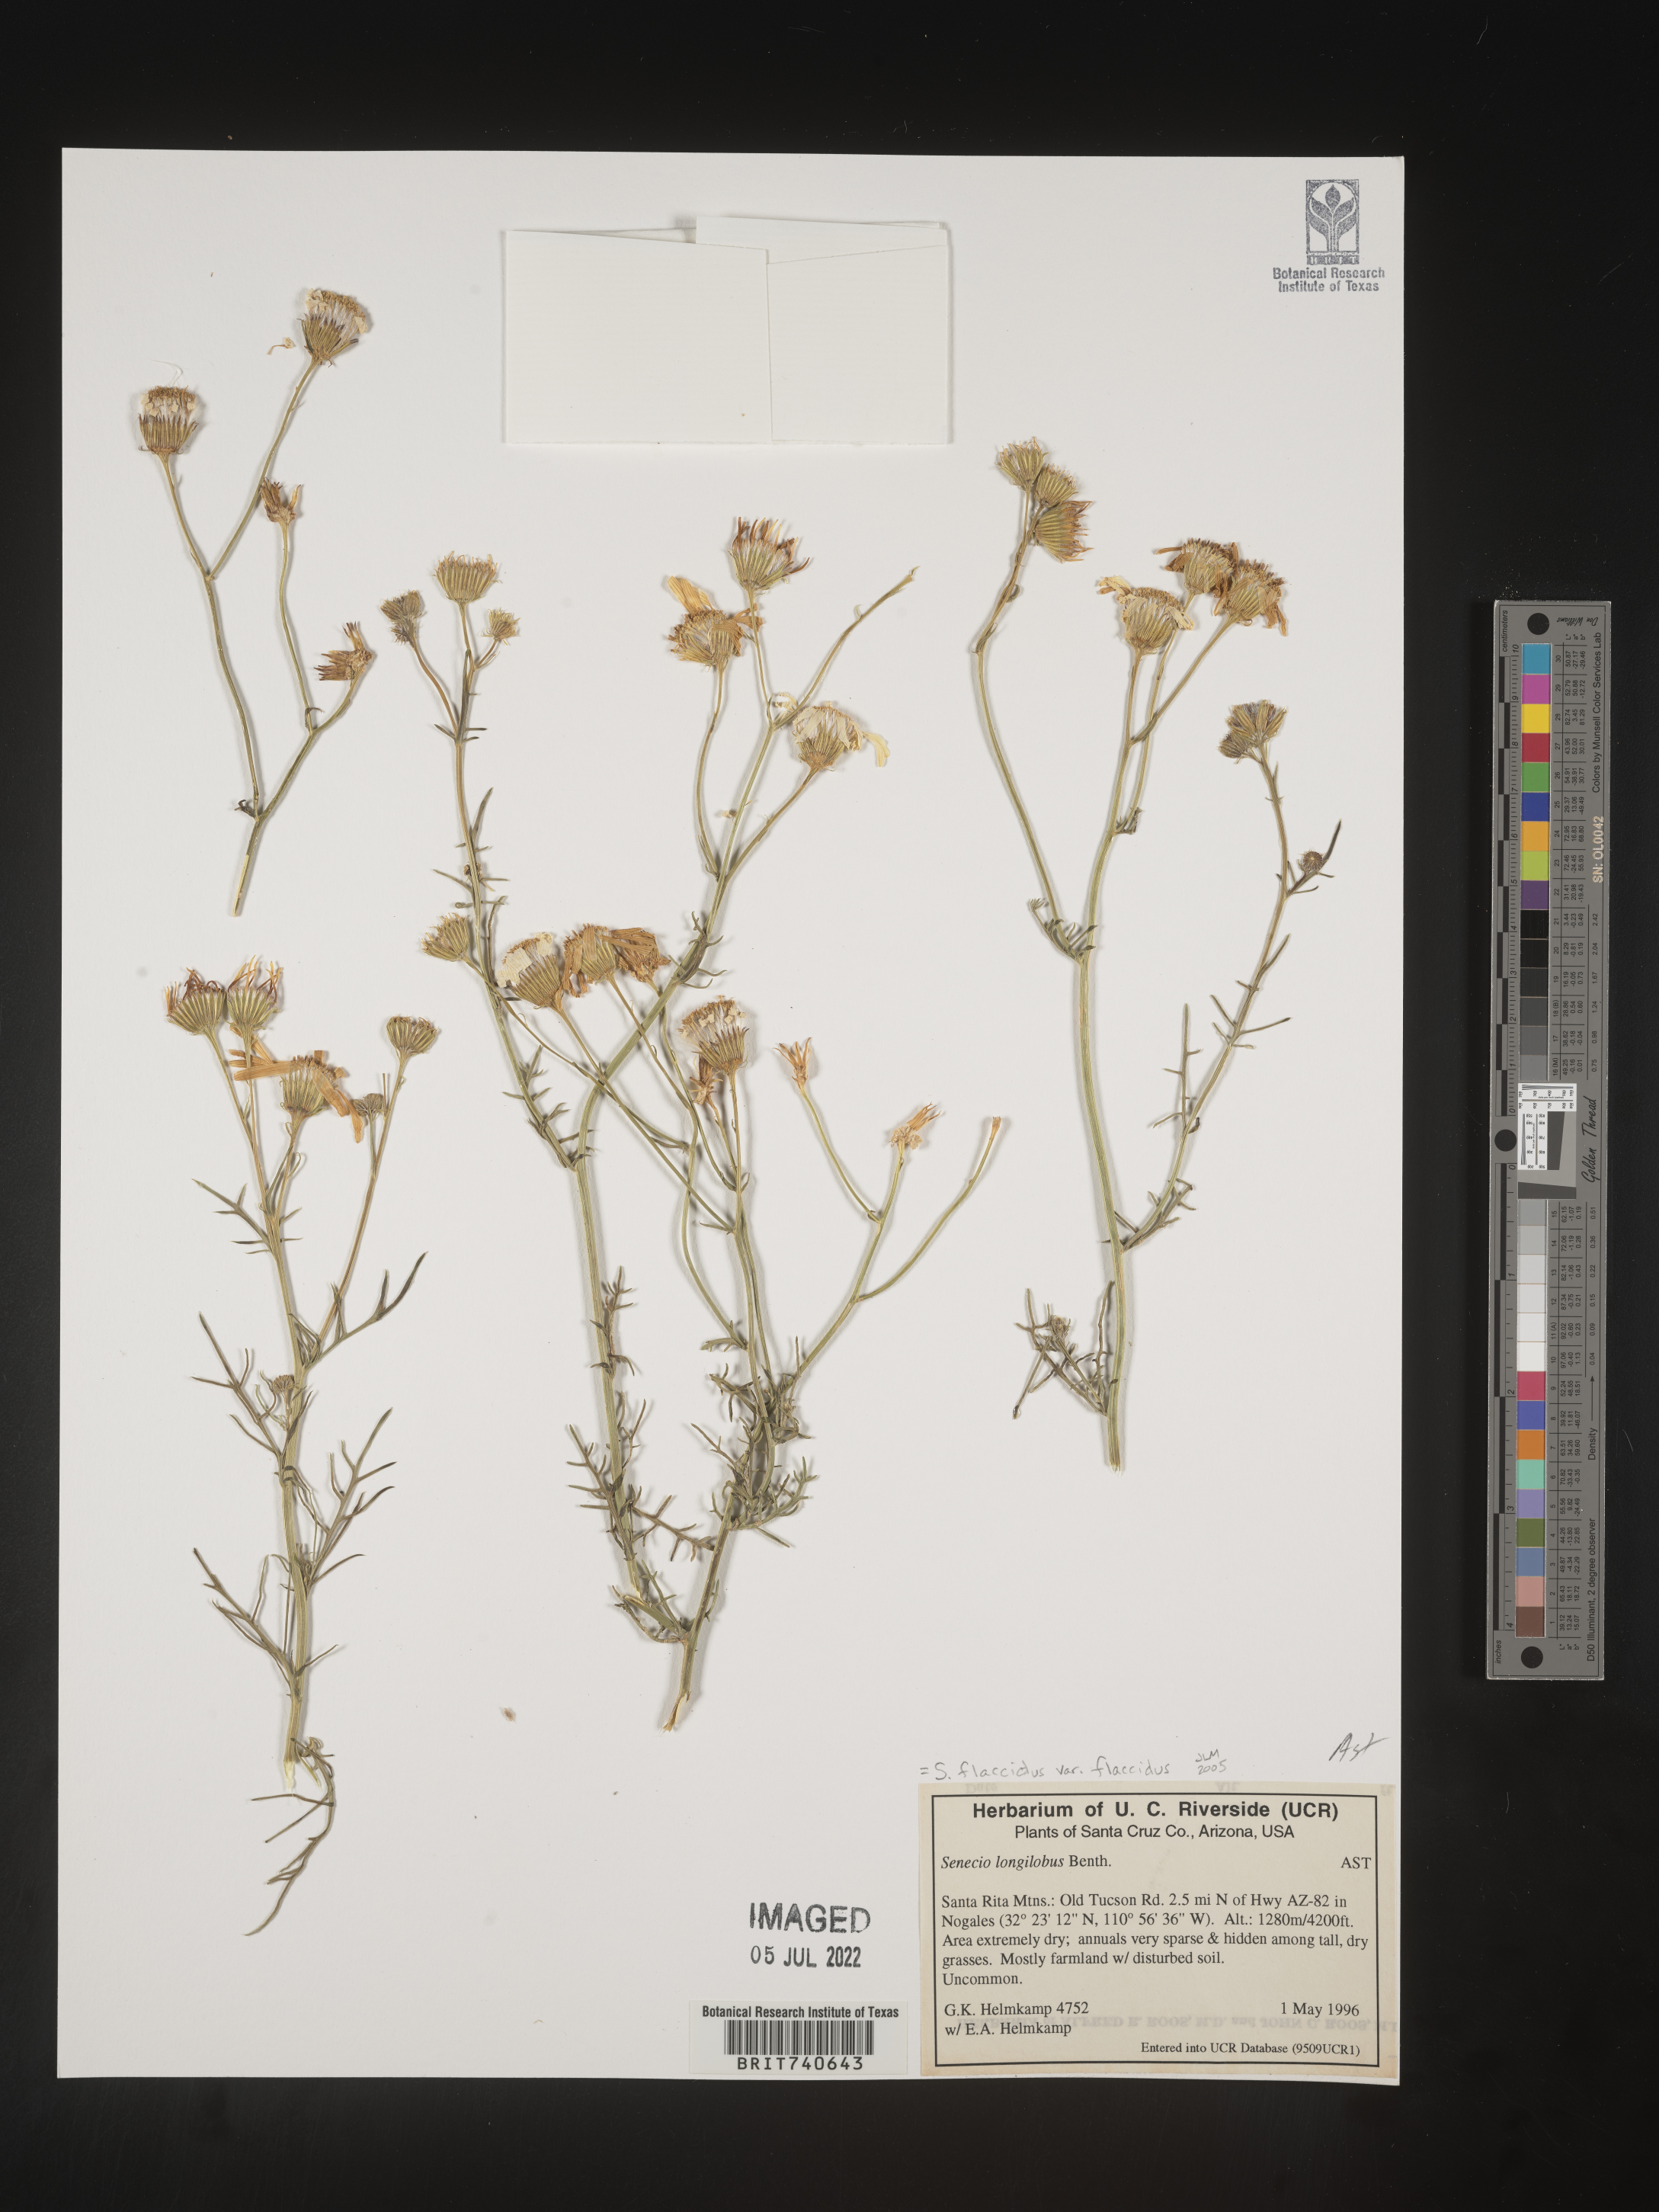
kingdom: Plantae
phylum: Tracheophyta
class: Magnoliopsida
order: Asterales
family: Asteraceae
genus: Senecio
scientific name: Senecio flaccidus
